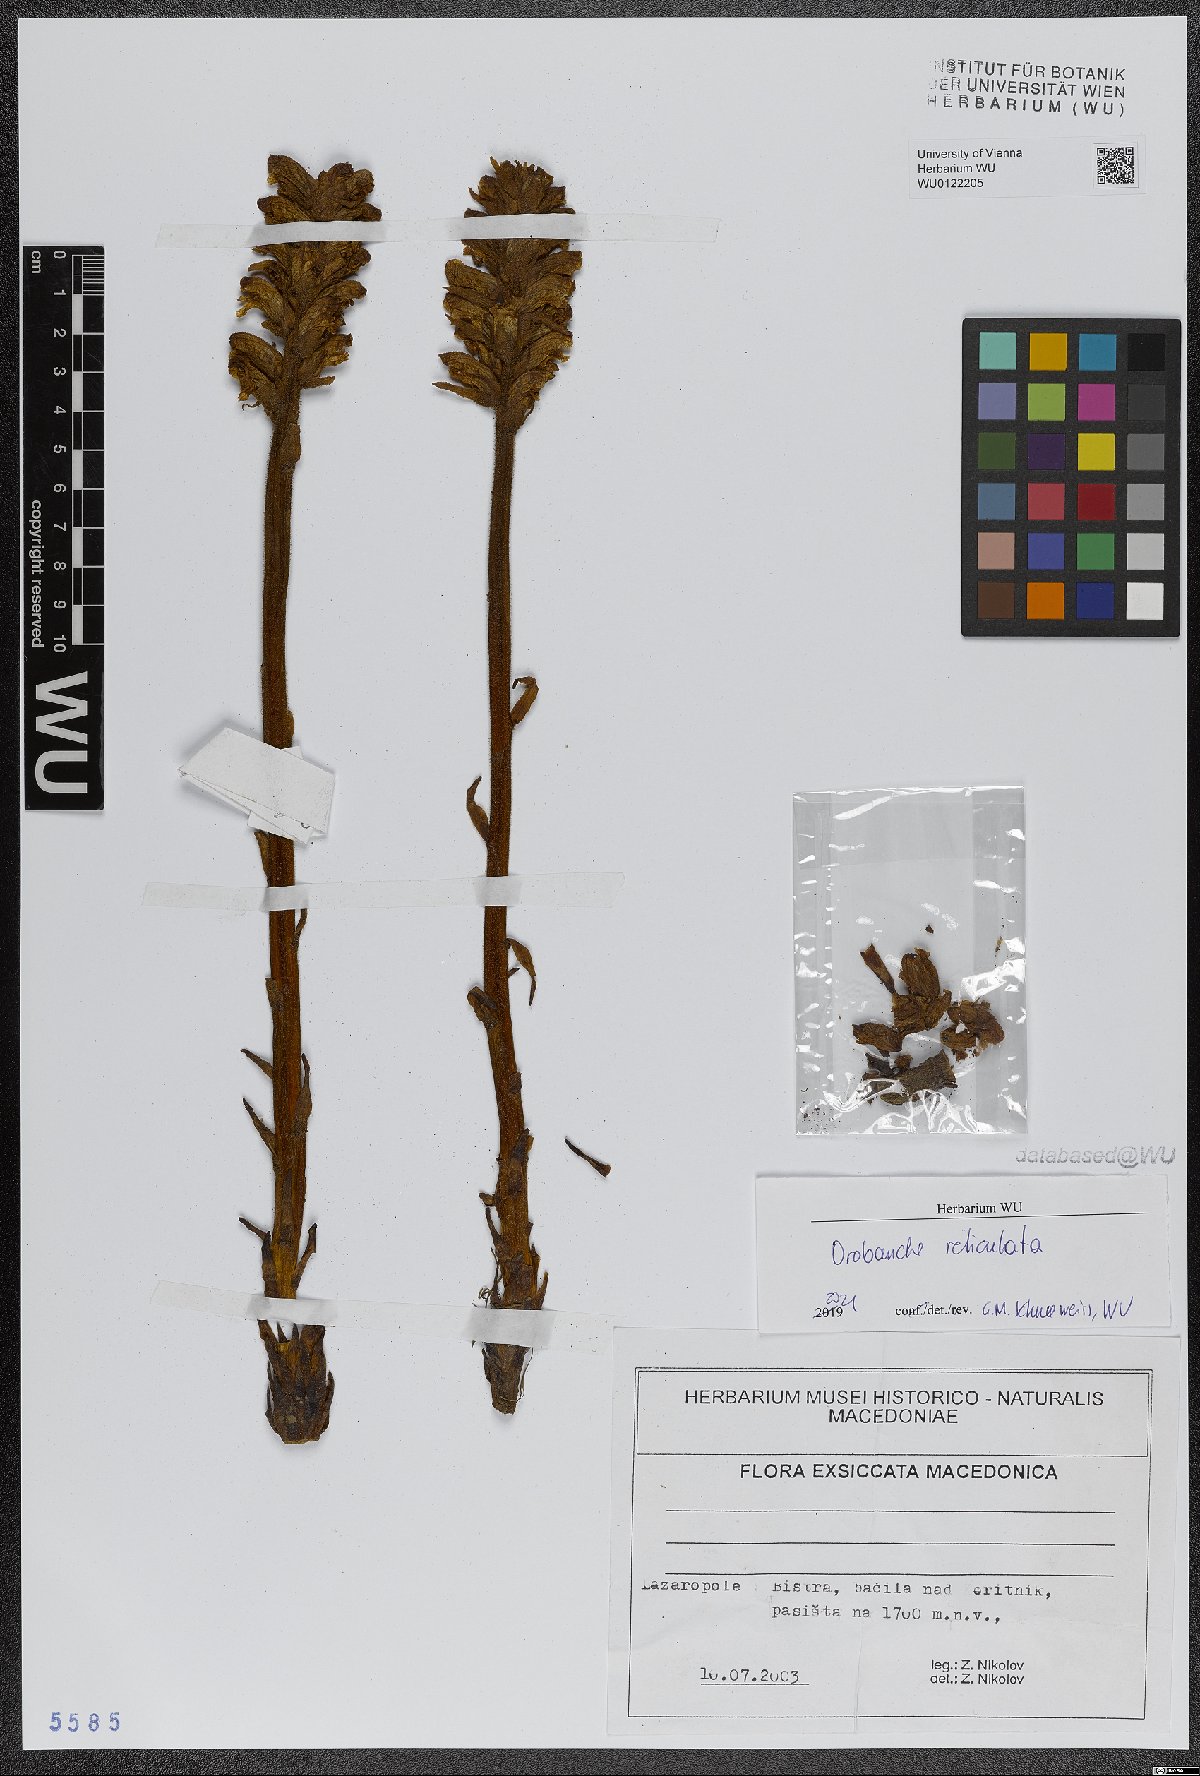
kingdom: Plantae
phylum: Tracheophyta
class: Magnoliopsida
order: Lamiales
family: Orobanchaceae
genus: Orobanche
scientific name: Orobanche reticulata
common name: Thistle broomrape
